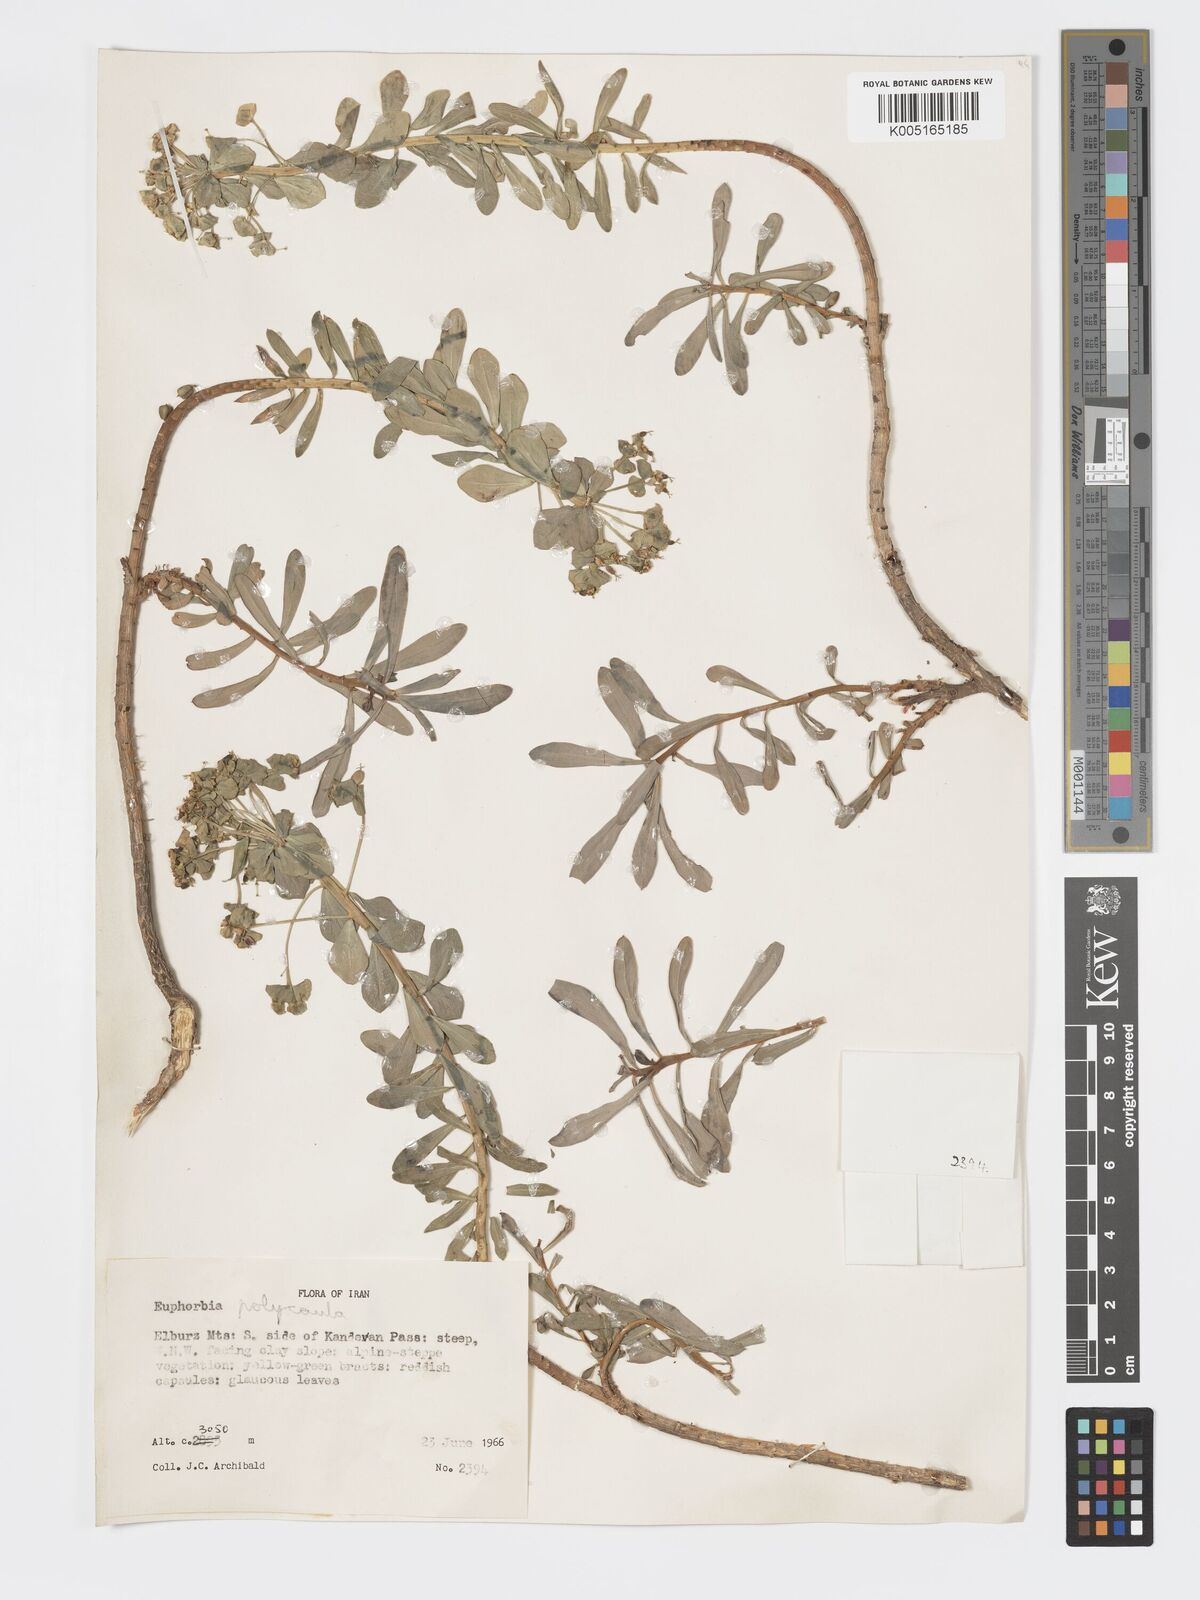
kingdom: Plantae
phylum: Tracheophyta
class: Magnoliopsida
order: Malpighiales
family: Euphorbiaceae
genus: Euphorbia
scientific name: Euphorbia polycaulis
